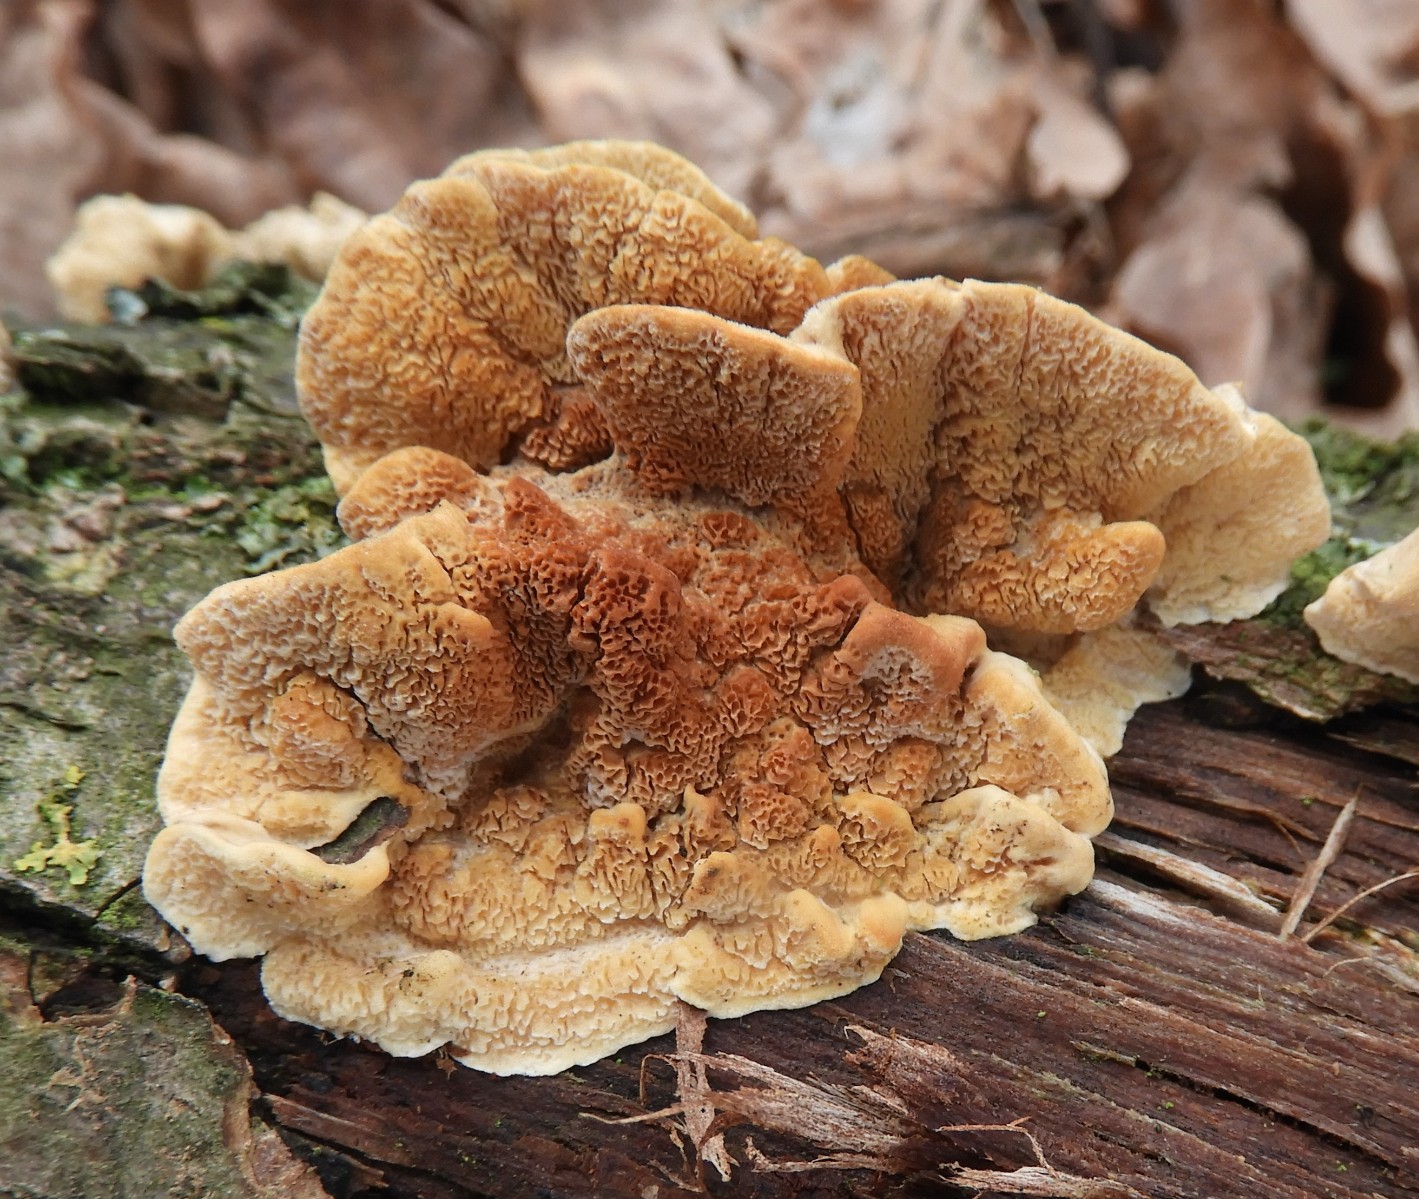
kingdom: Fungi
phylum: Basidiomycota
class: Agaricomycetes
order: Polyporales
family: Polyporaceae
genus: Trametes
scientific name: Trametes versicolor
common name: broget læderporesvamp
